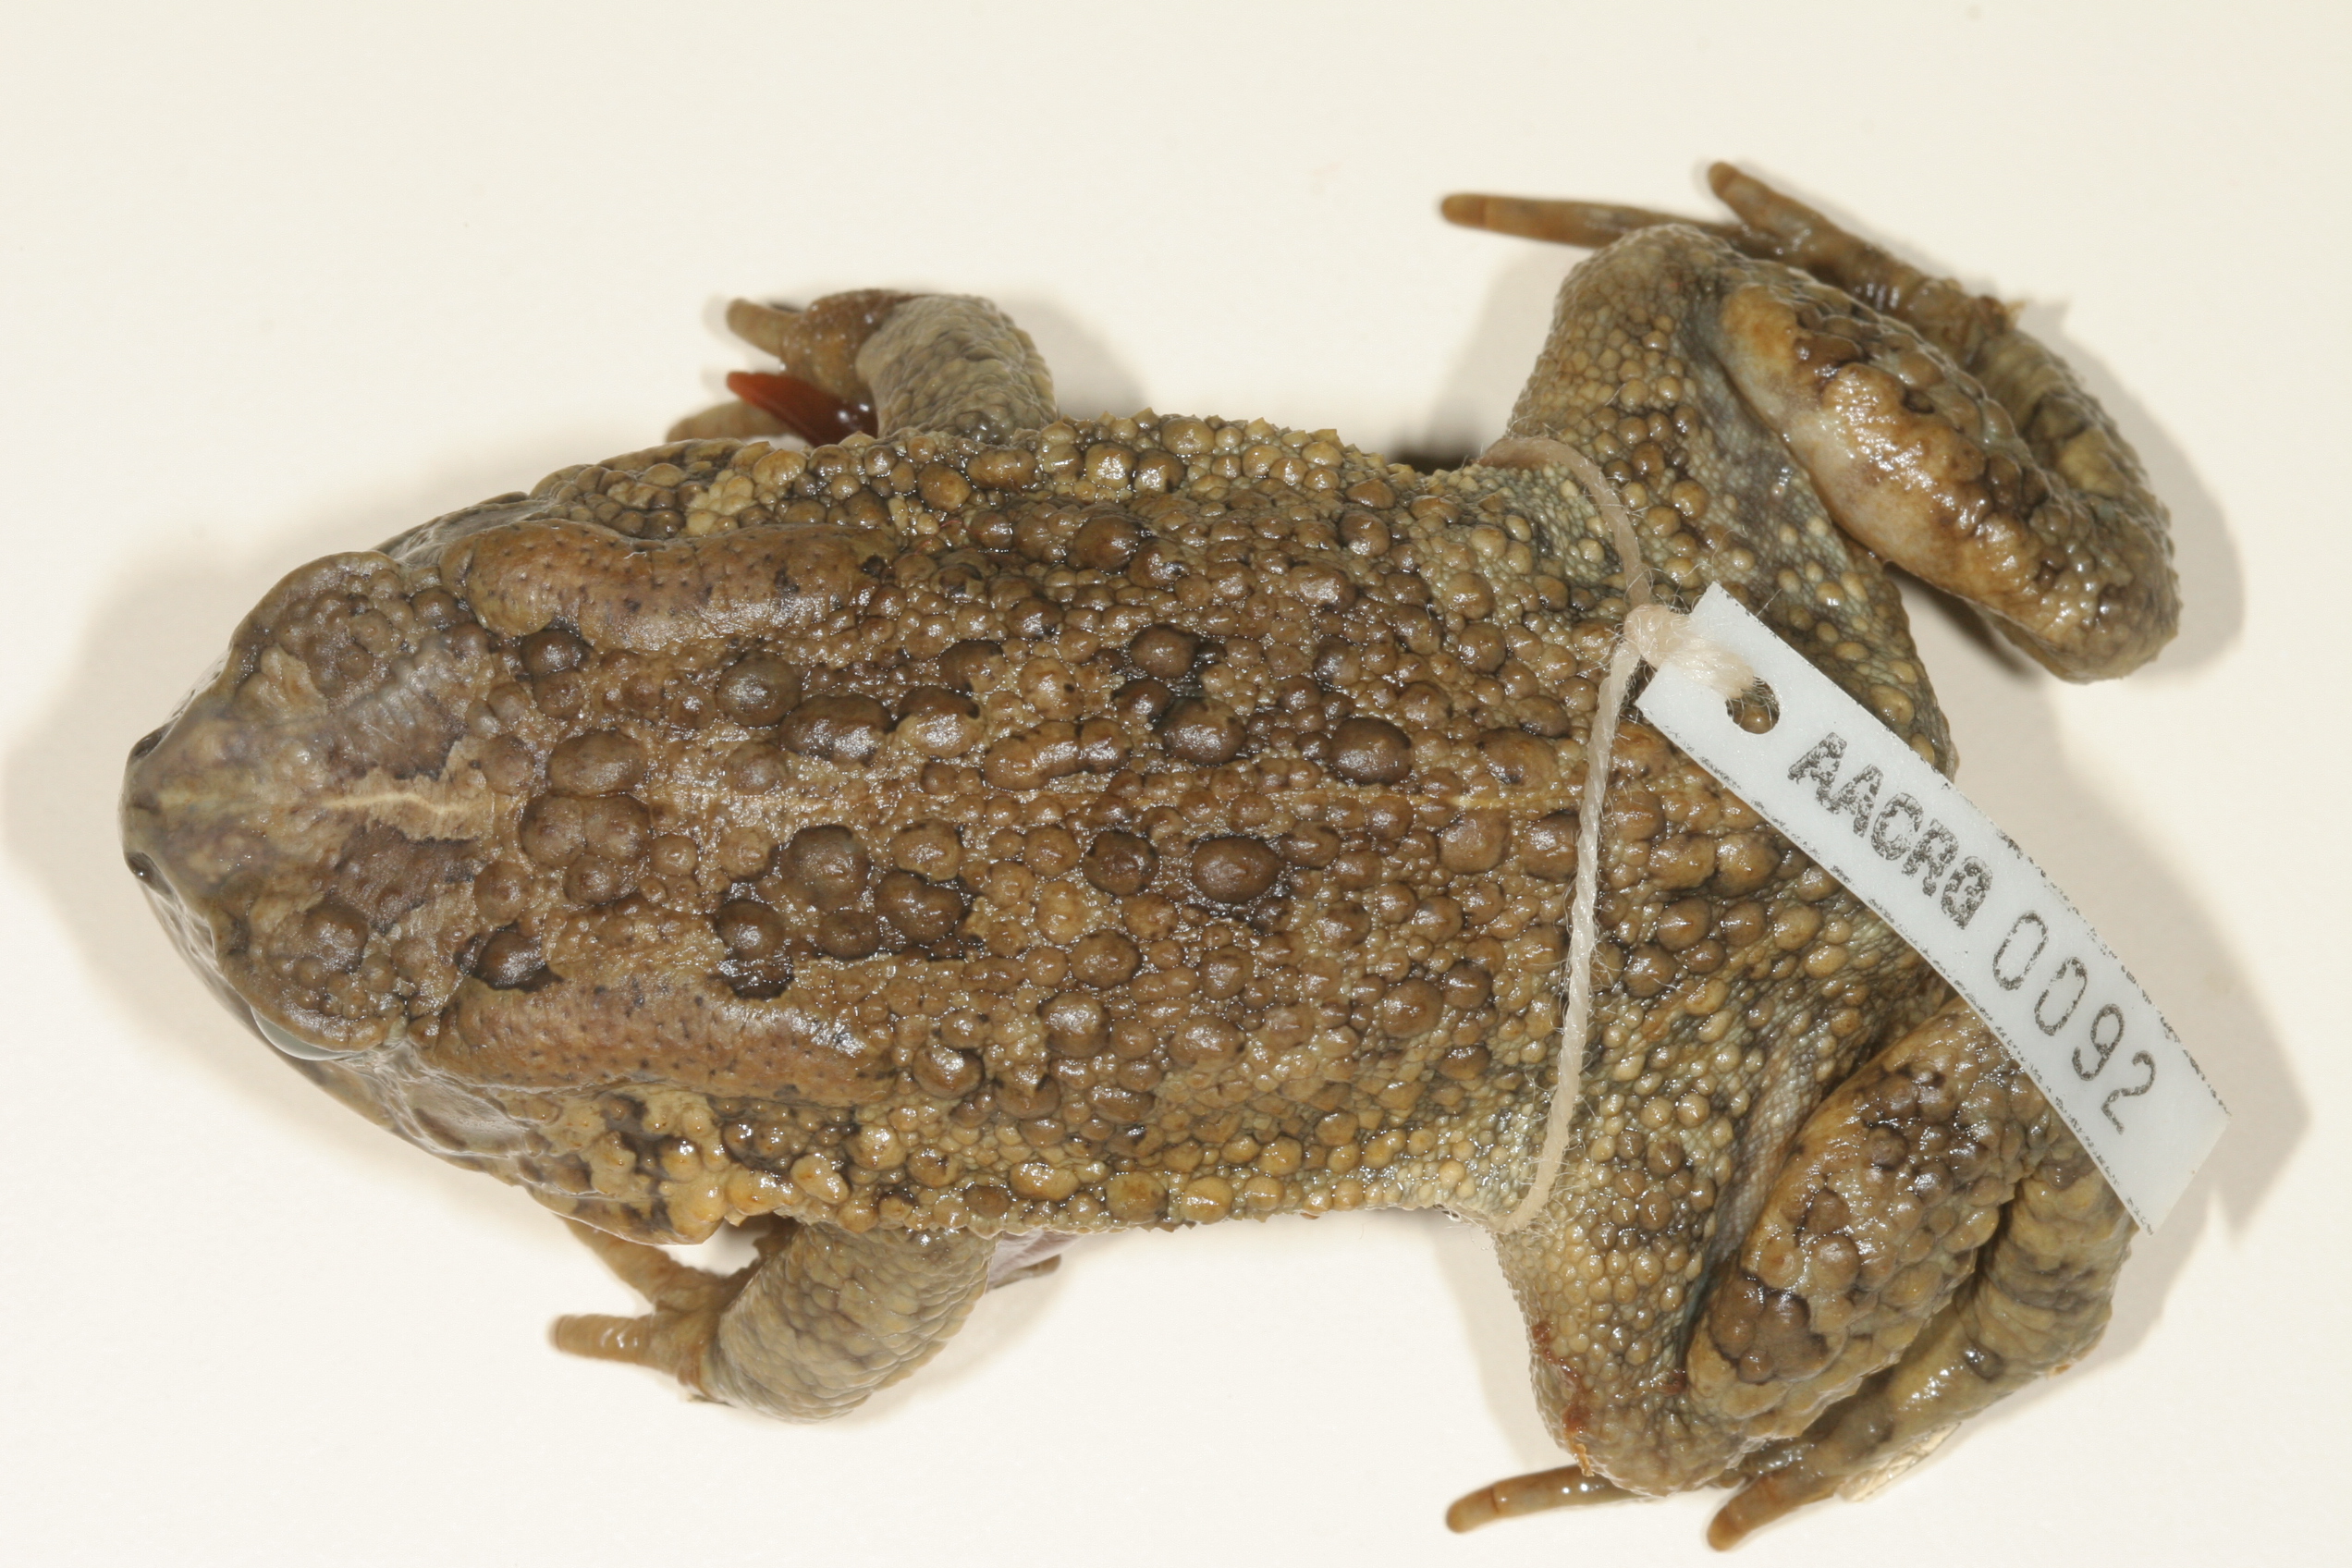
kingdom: Animalia
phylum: Chordata
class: Amphibia
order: Anura
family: Bufonidae
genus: Sclerophrys
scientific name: Sclerophrys gutturalis
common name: African common toad
